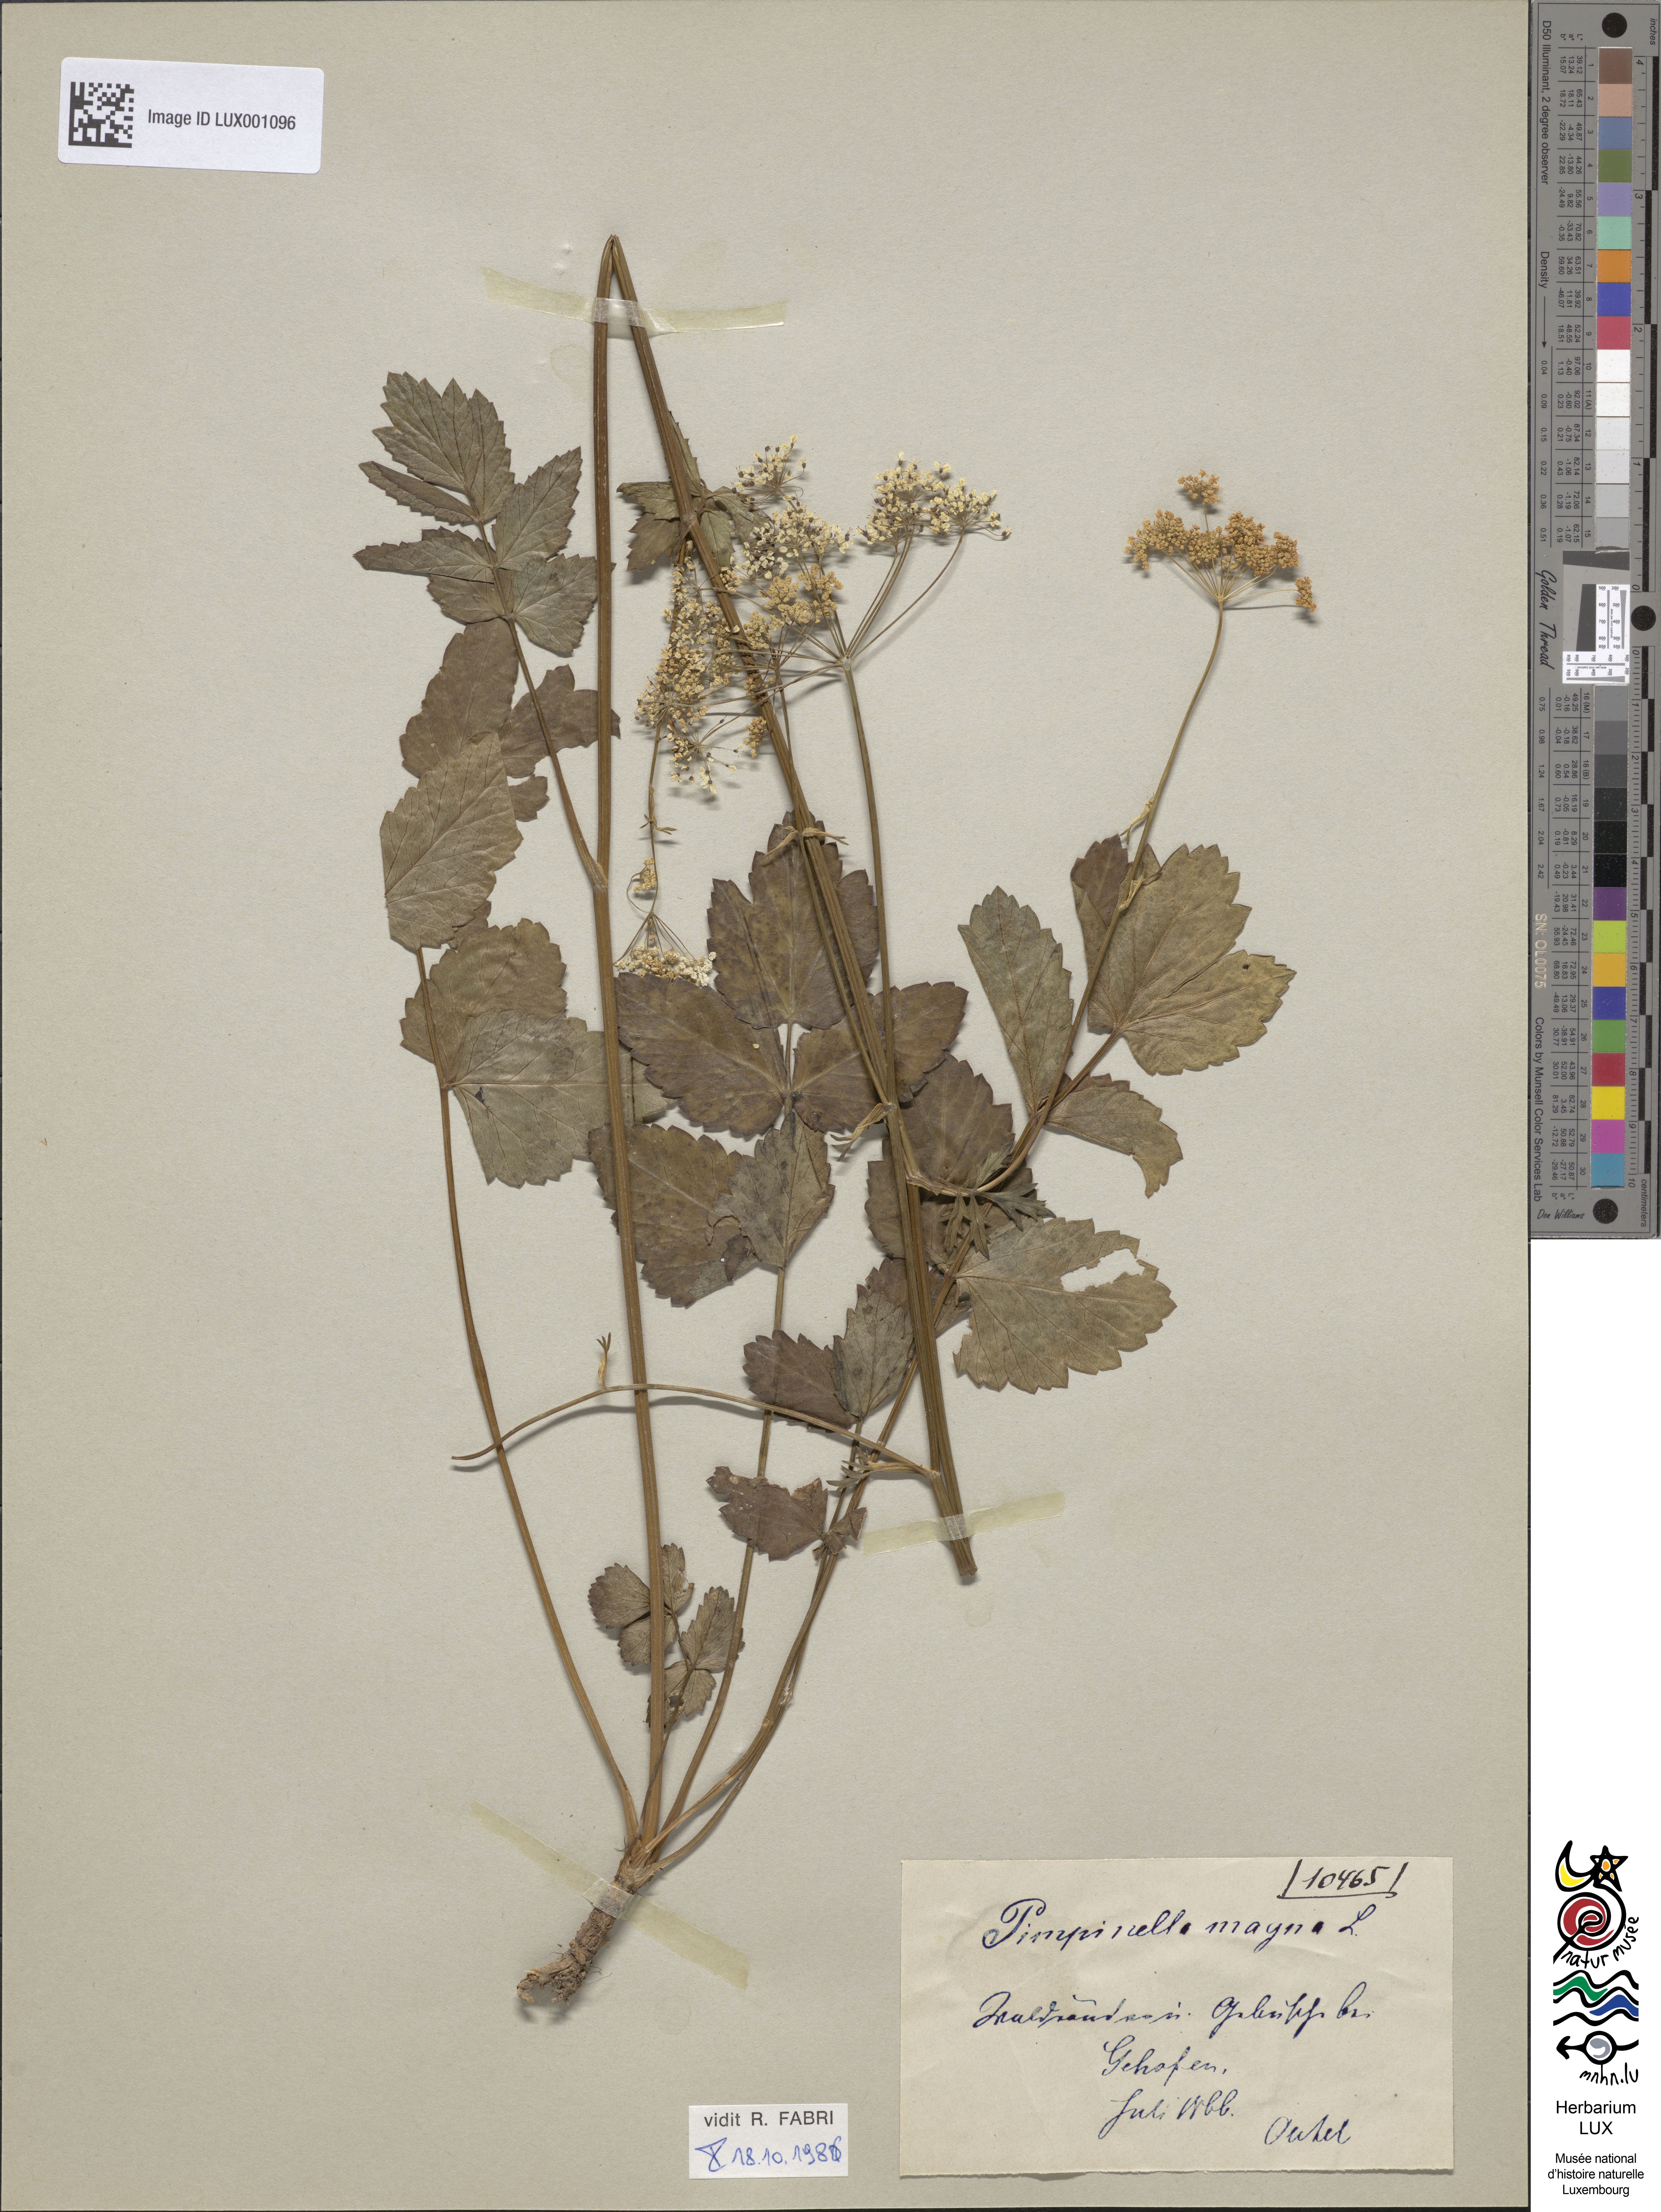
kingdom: Plantae
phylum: Tracheophyta
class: Magnoliopsida
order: Apiales
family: Apiaceae
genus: Pimpinella
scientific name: Pimpinella major
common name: Greater burnet-saxifrage
